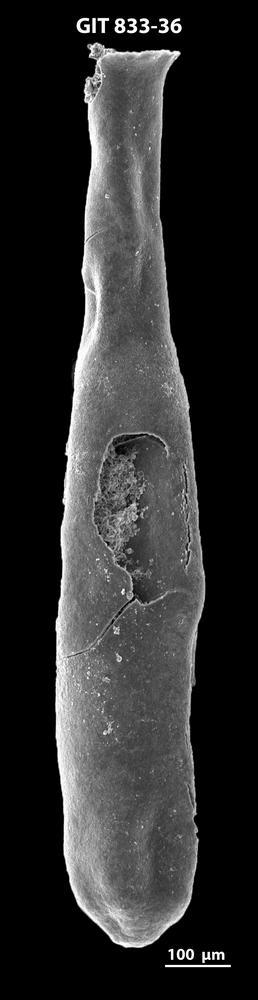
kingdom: Animalia
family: Lagenochitinidae
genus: Lagenochitina
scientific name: Lagenochitina megaesthonica
